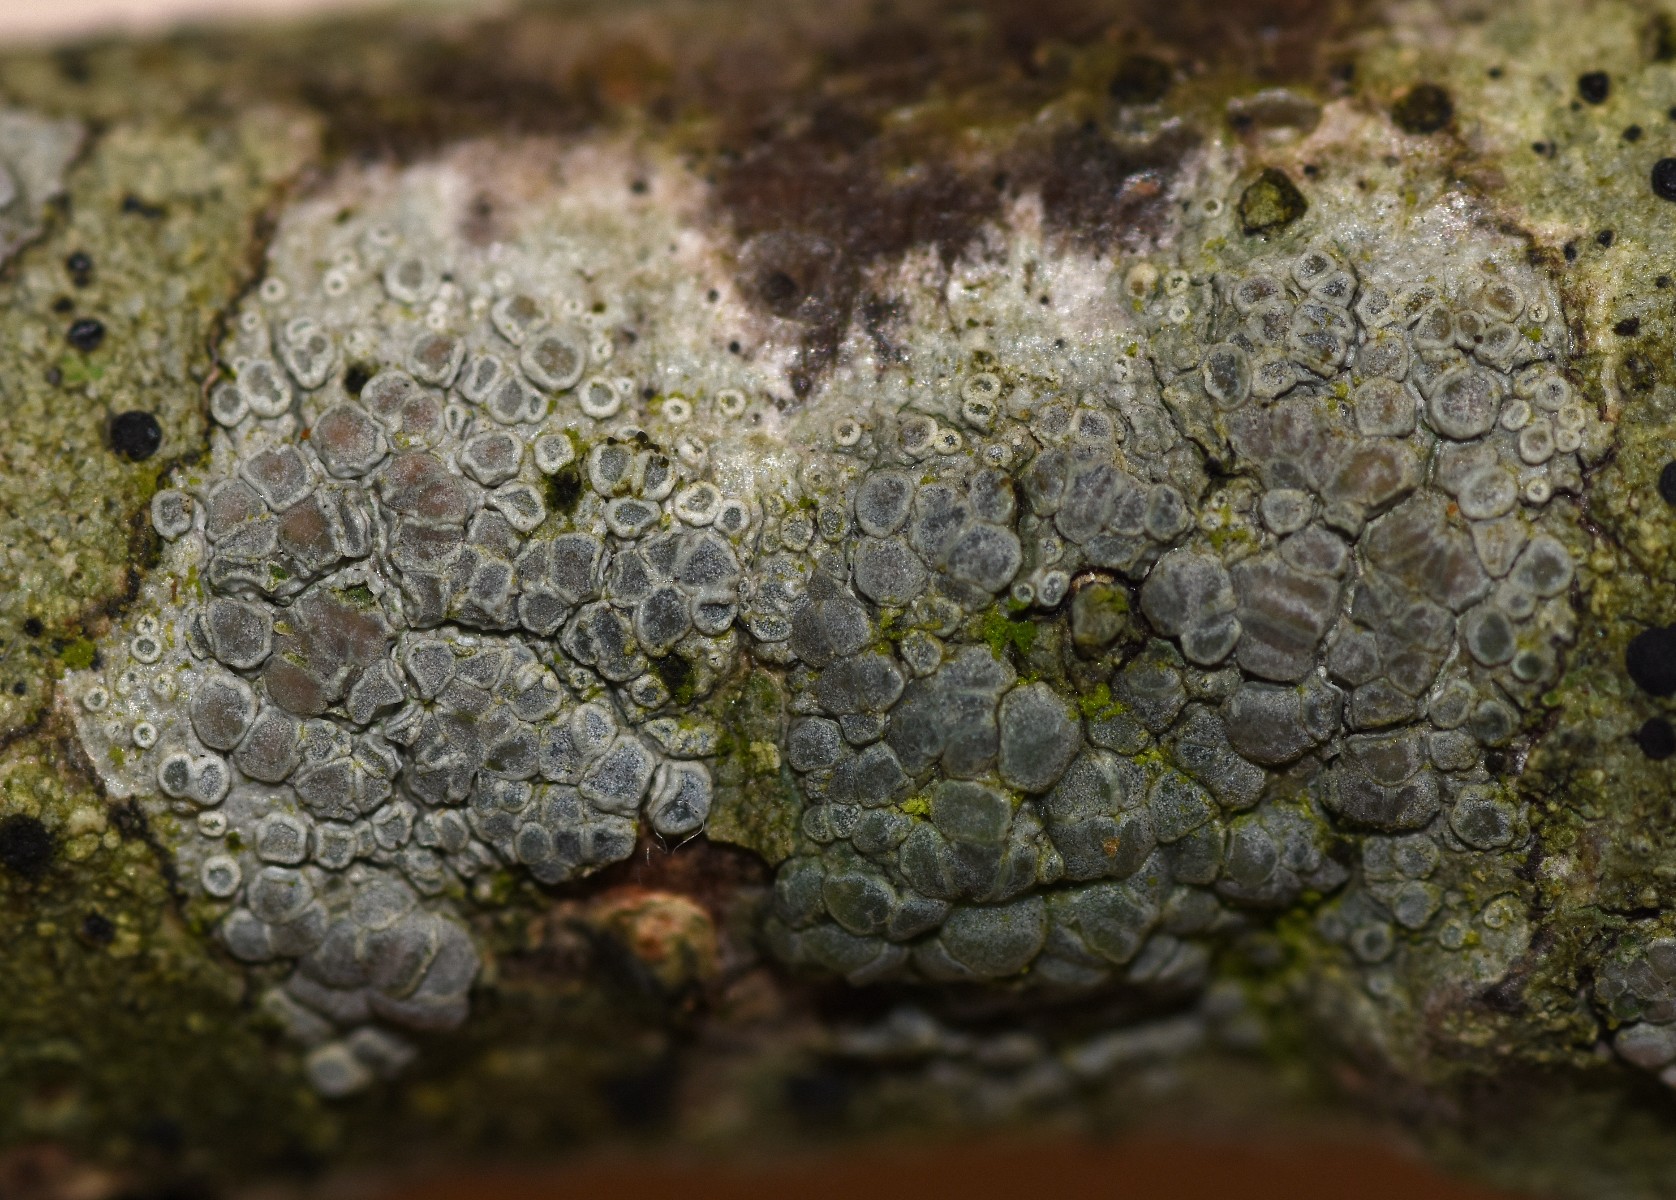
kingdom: Fungi
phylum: Ascomycota
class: Lecanoromycetes
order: Lecanorales
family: Lecanoraceae
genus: Glaucomaria
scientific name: Glaucomaria carpinea
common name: hviddugget kantskivelav
